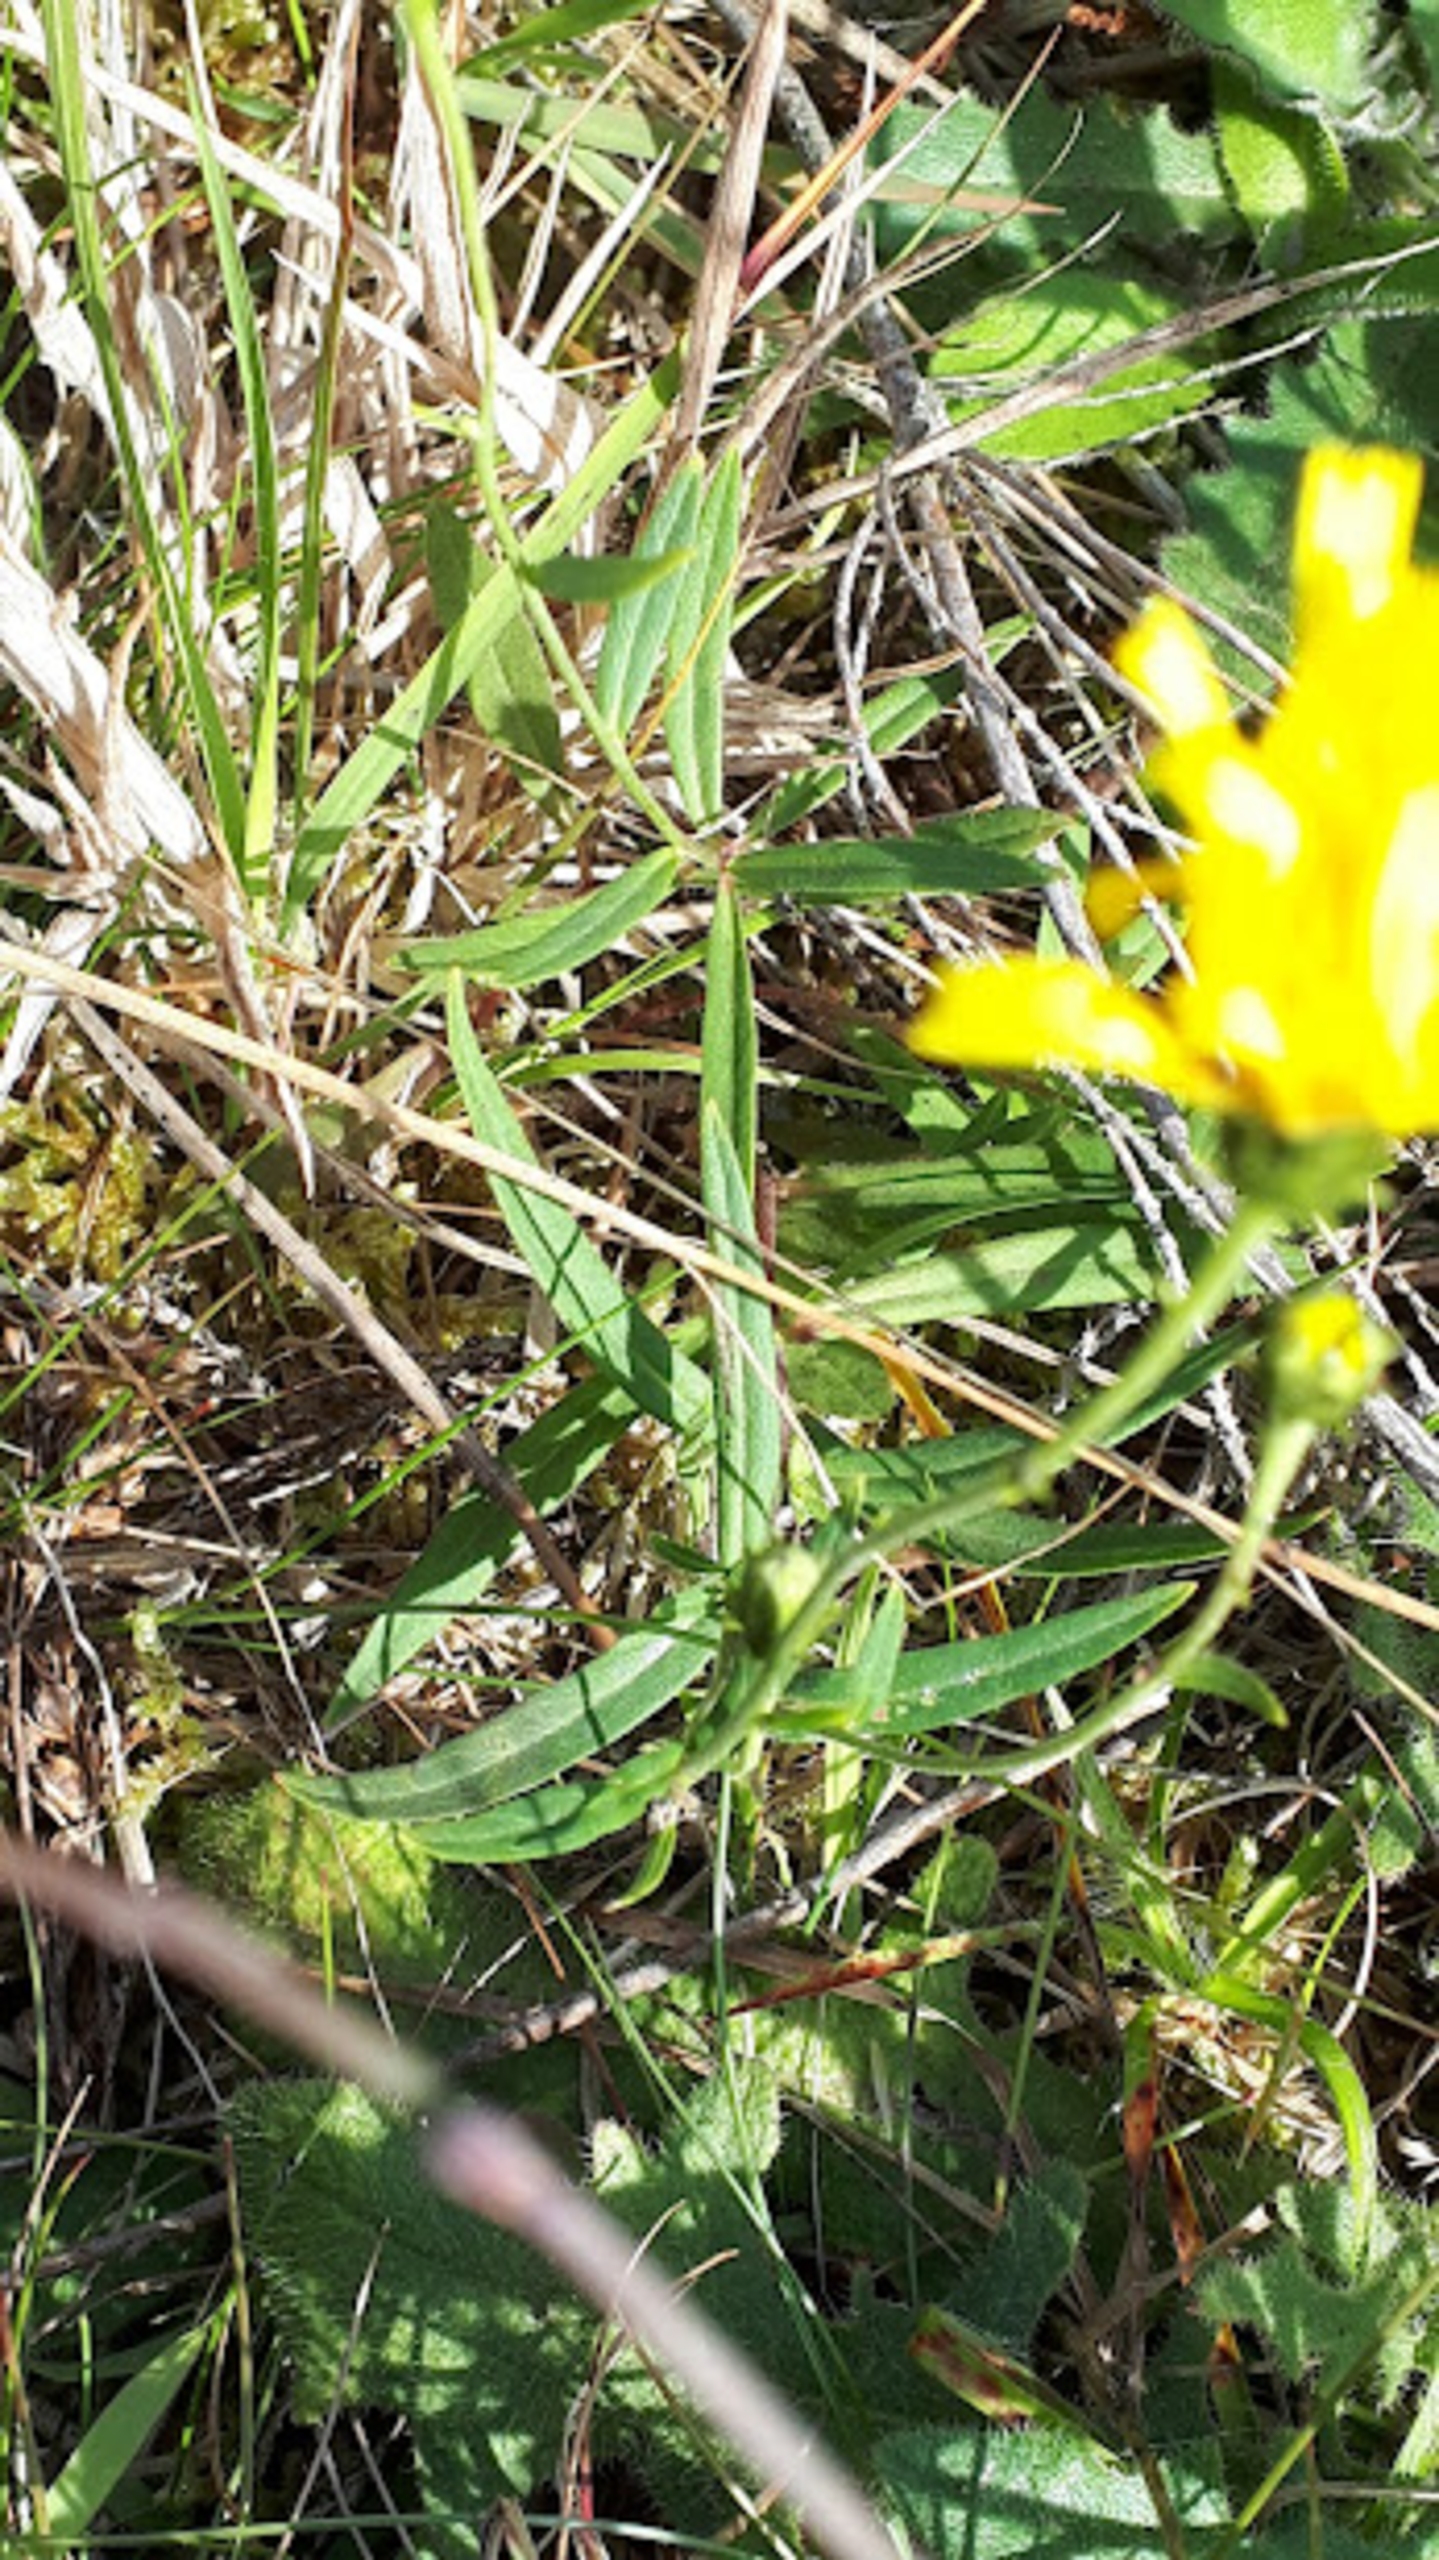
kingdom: Plantae
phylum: Tracheophyta
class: Magnoliopsida
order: Asterales
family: Asteraceae
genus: Hieracium
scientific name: Hieracium umbellatum
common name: Smalbladet høgeurt
